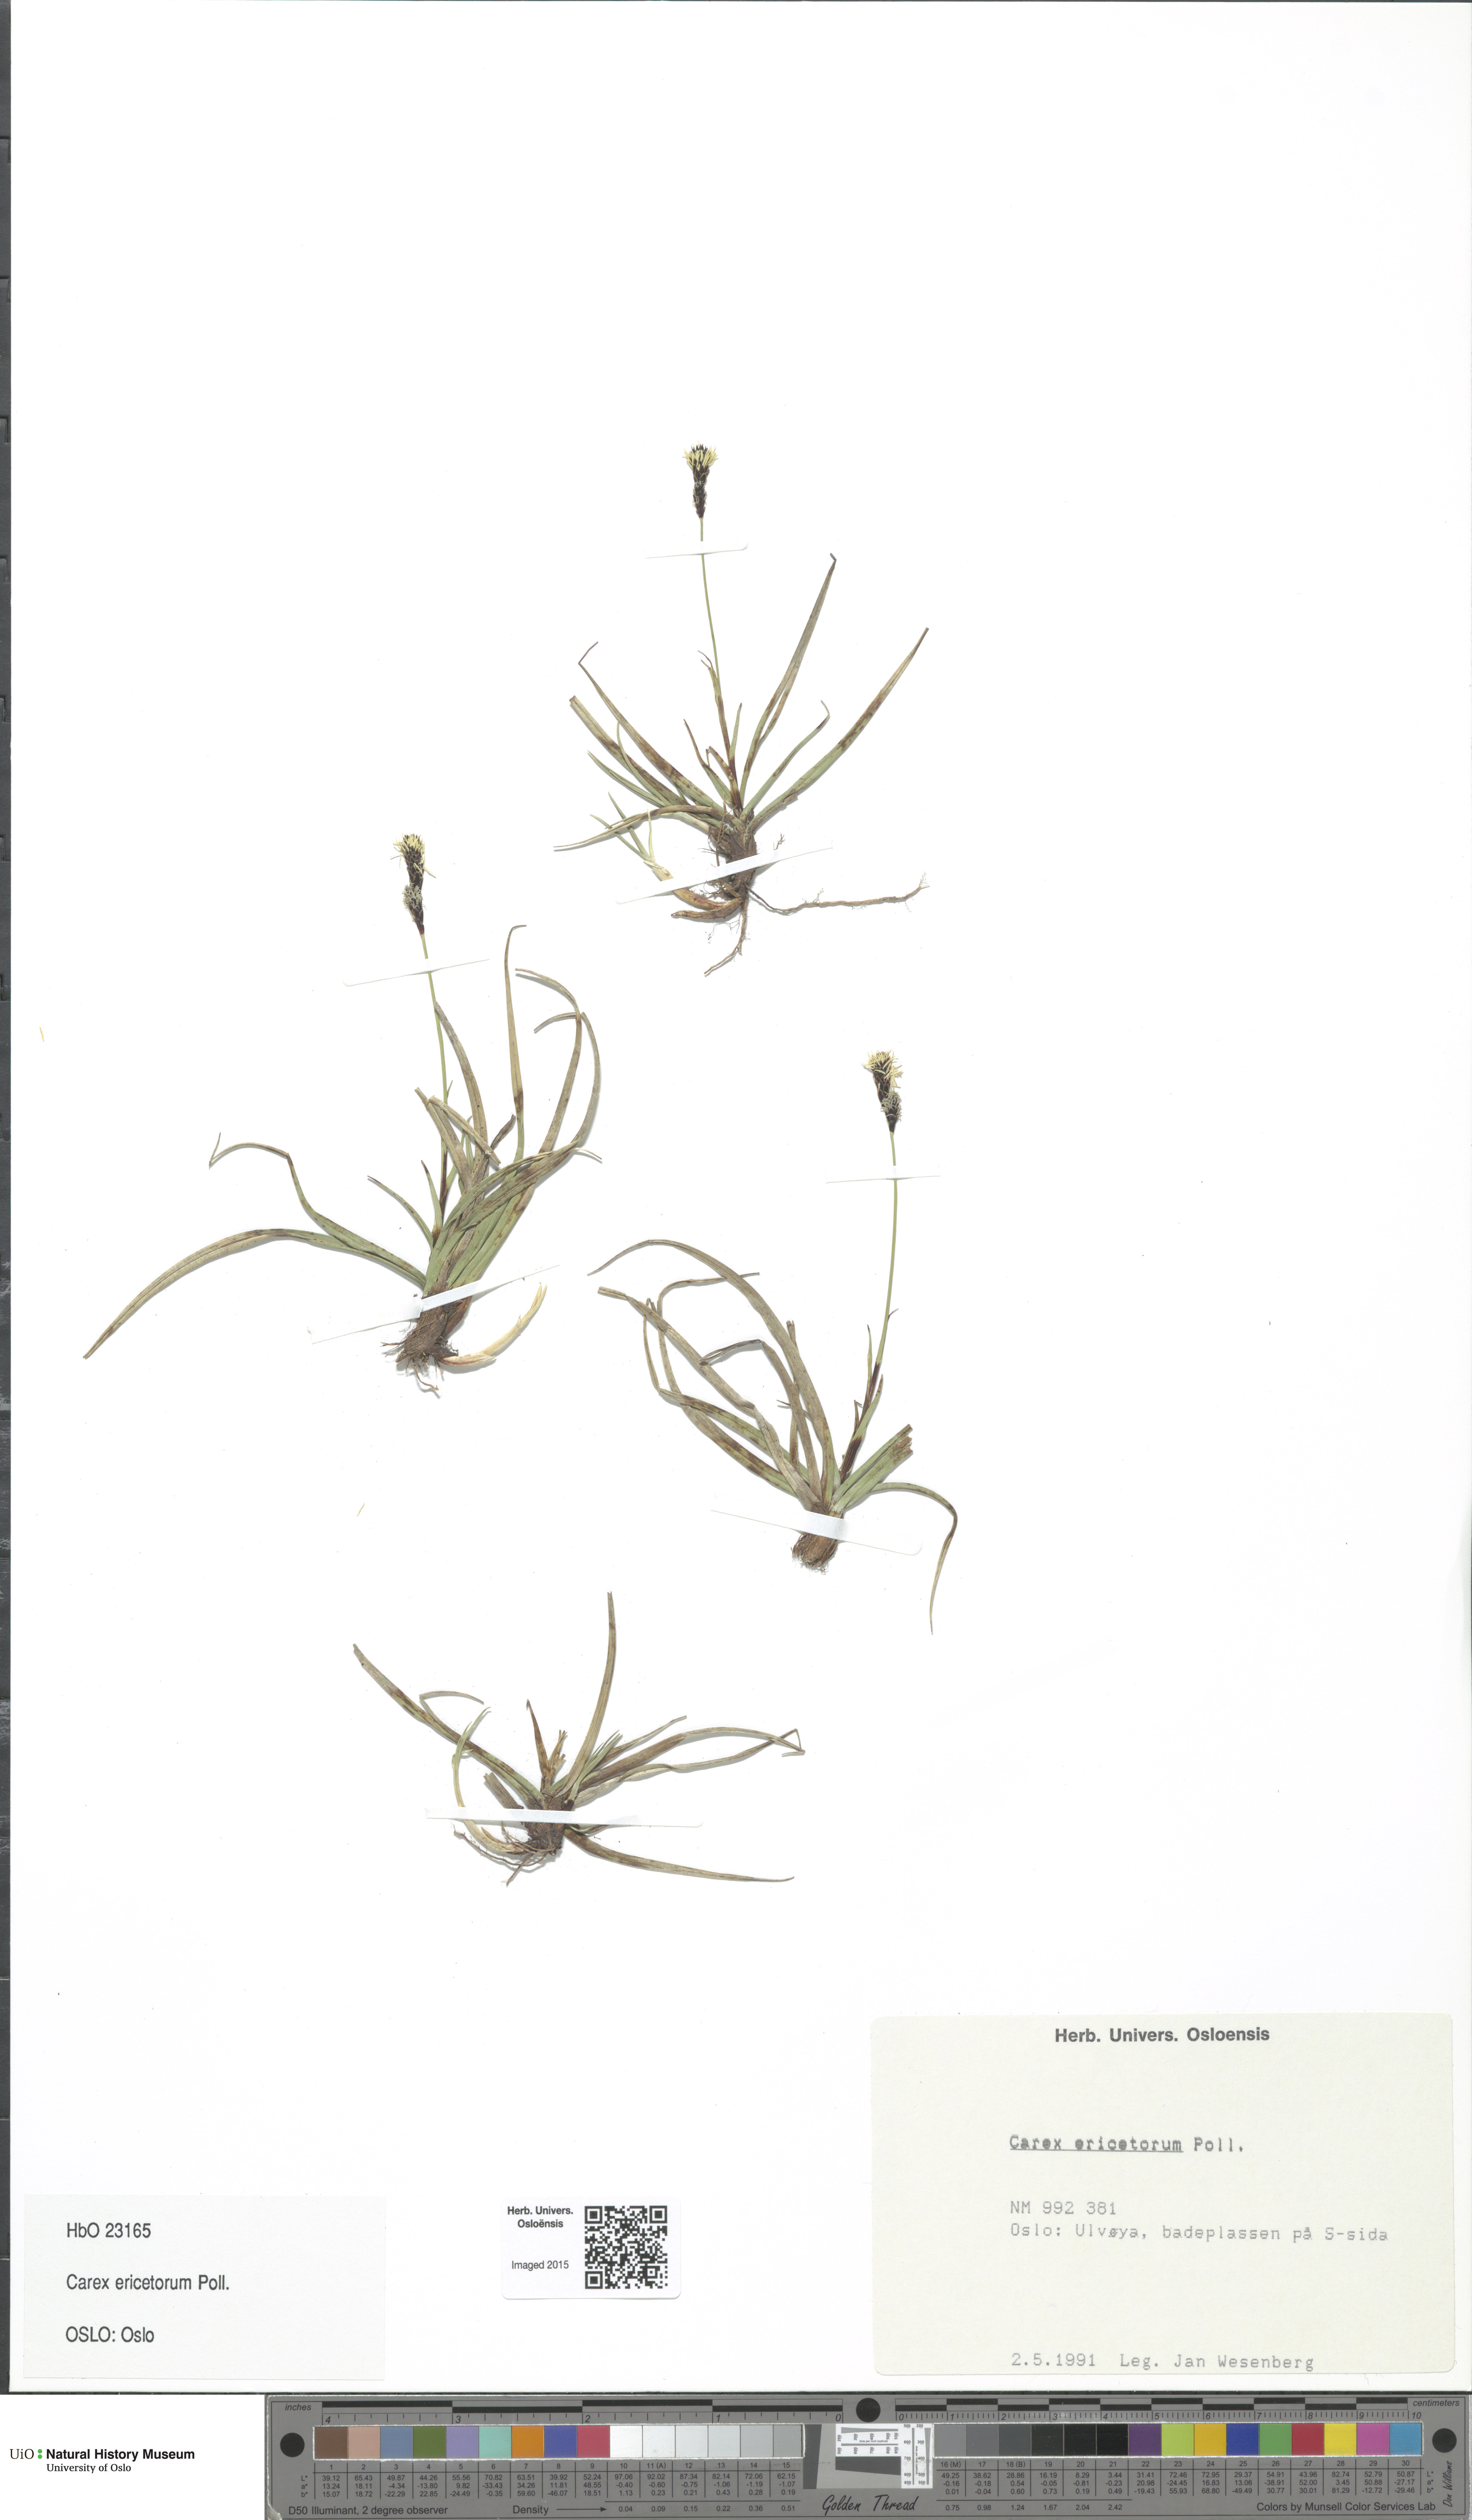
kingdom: Plantae
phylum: Tracheophyta
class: Liliopsida
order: Poales
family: Cyperaceae
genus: Carex
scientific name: Carex ericetorum
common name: Rare spring-sedge
